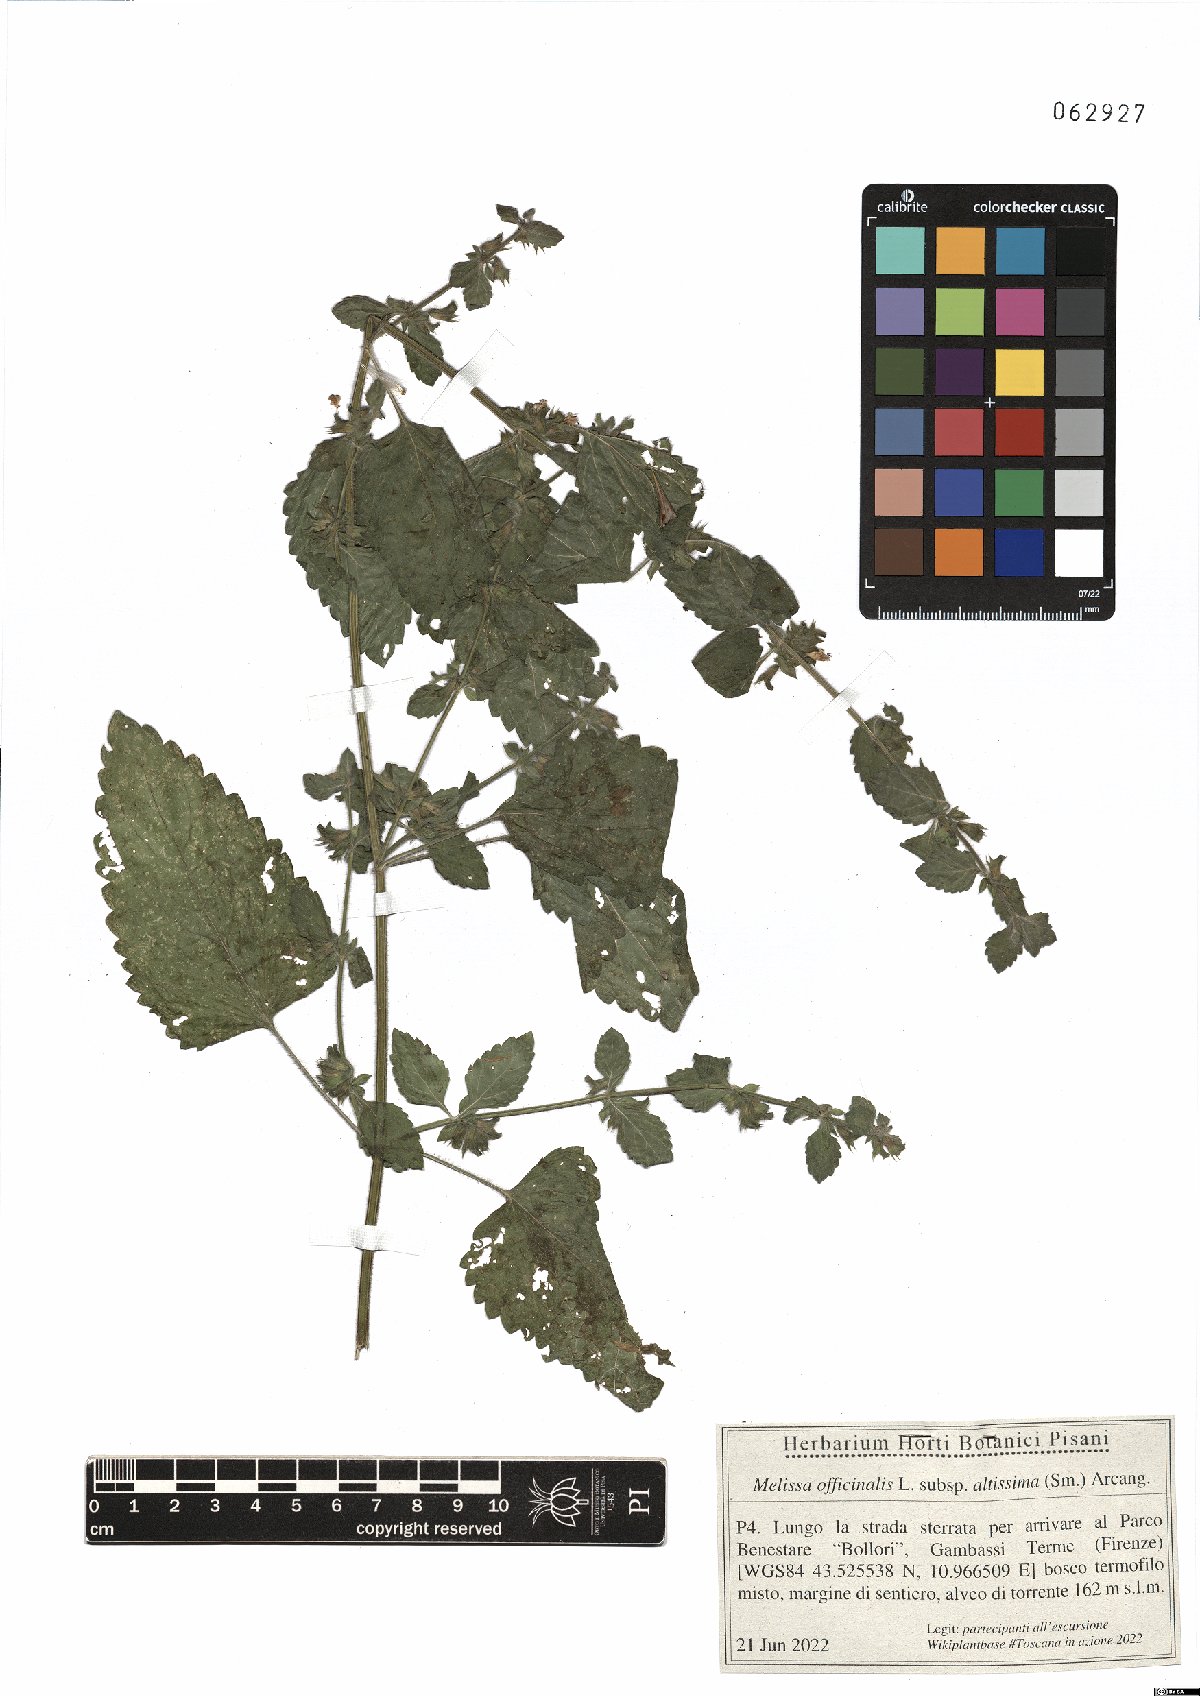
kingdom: Plantae
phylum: Tracheophyta
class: Magnoliopsida
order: Lamiales
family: Lamiaceae
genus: Melissa
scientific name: Melissa officinalis
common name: Balm
